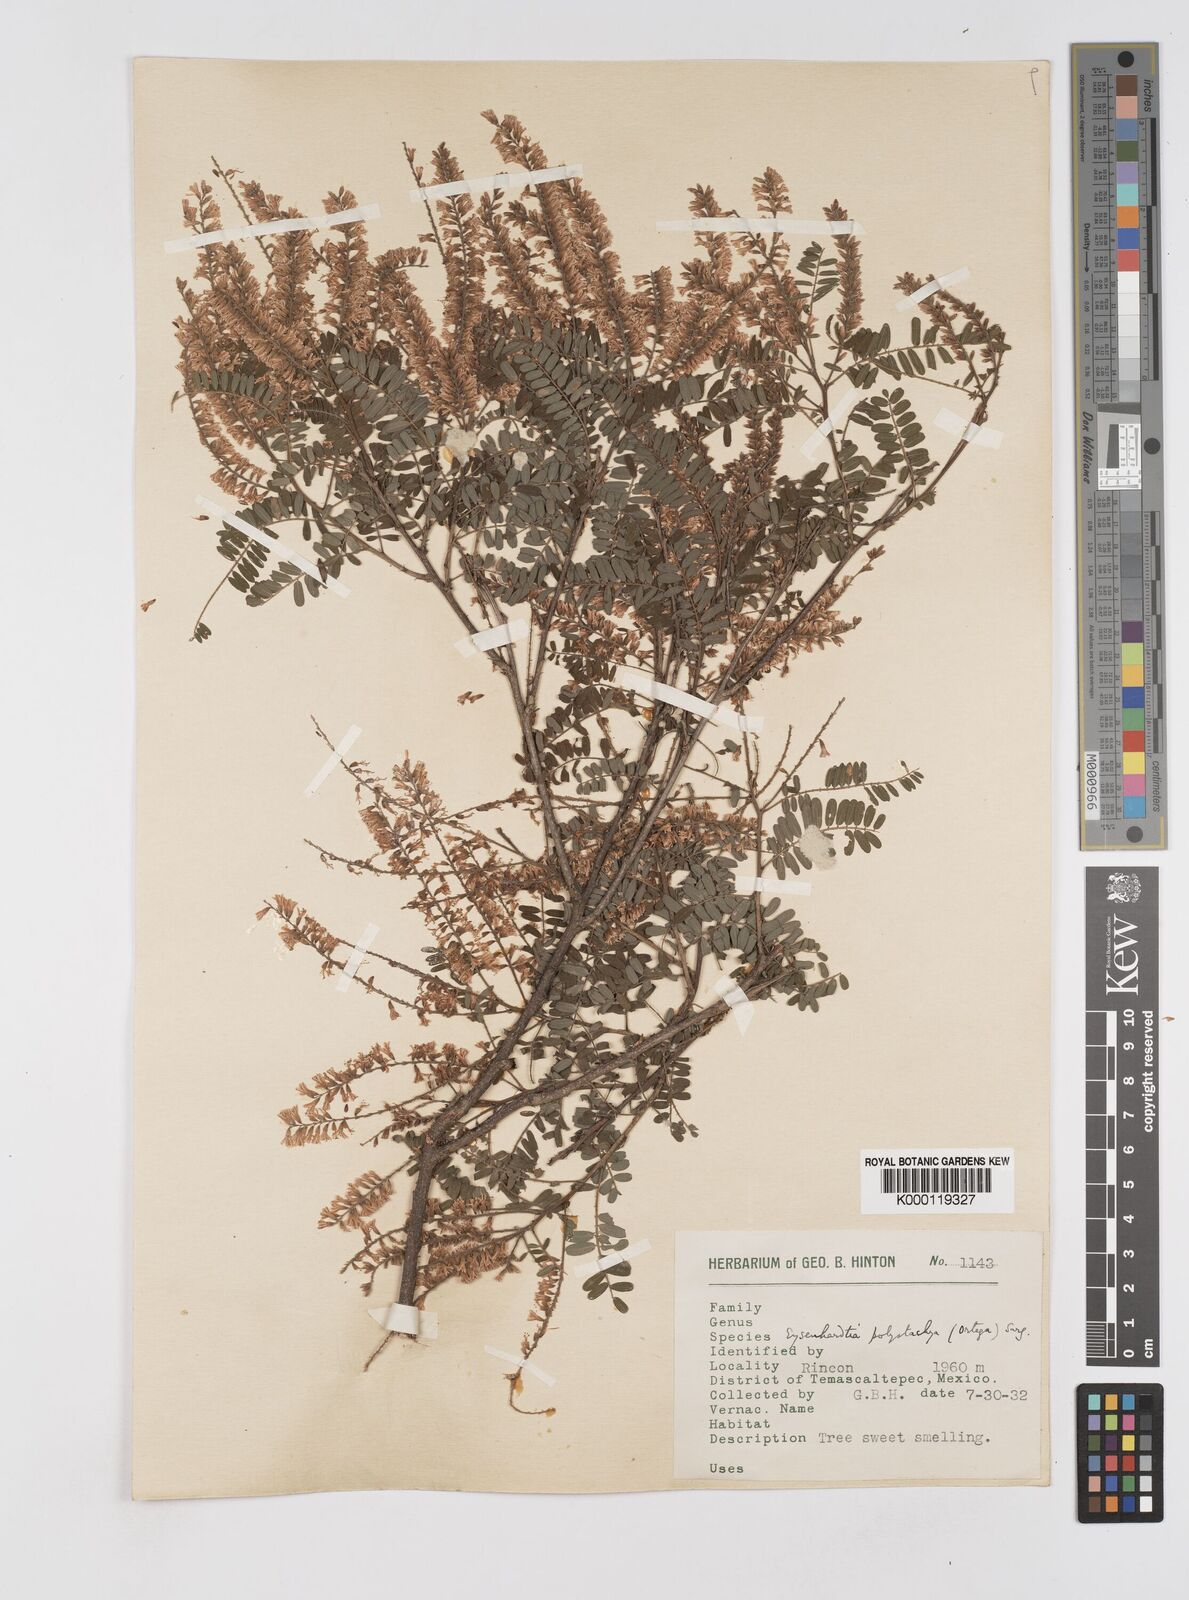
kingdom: Plantae
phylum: Tracheophyta
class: Magnoliopsida
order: Fabales
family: Fabaceae
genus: Eysenhardtia
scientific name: Eysenhardtia polystachya
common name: Kidneywood
